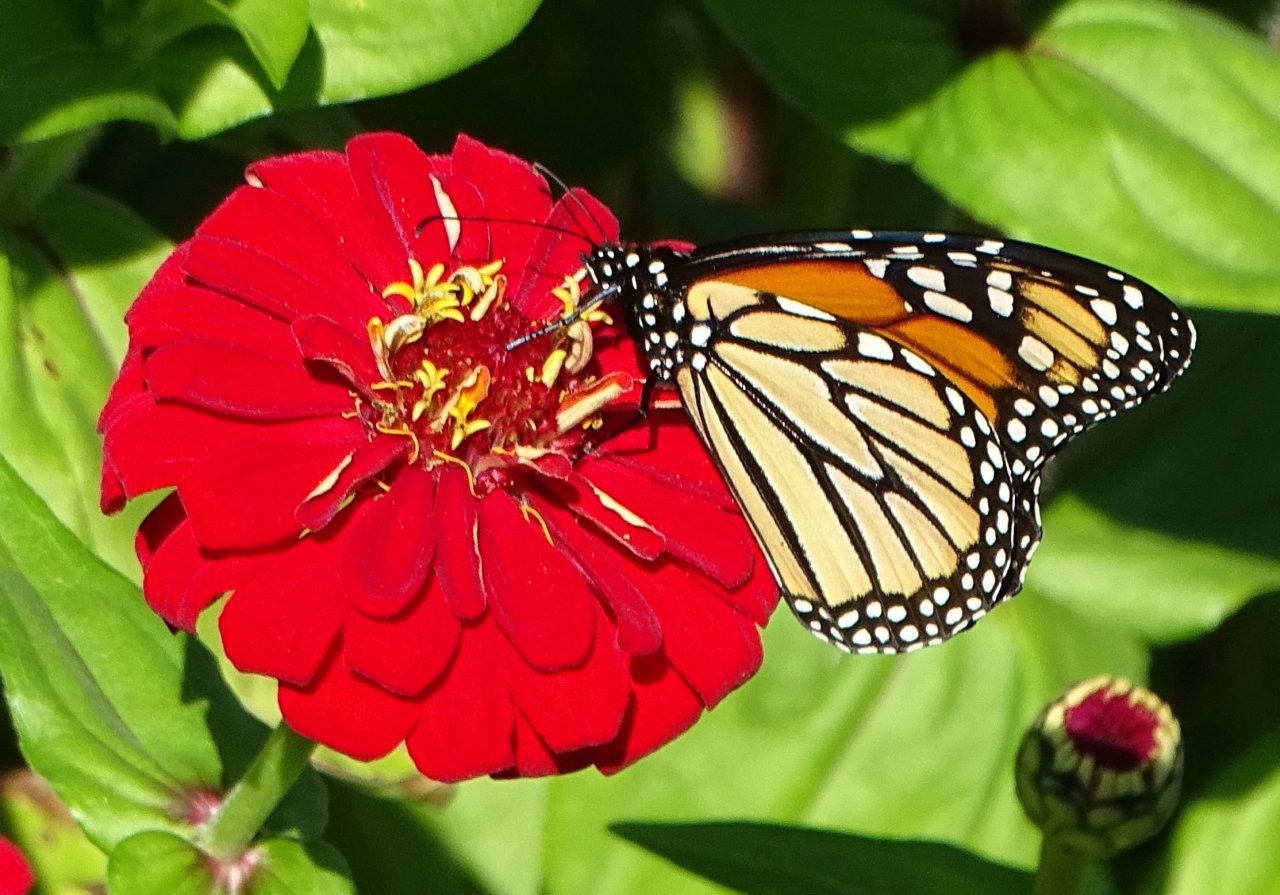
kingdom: Animalia
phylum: Arthropoda
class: Insecta
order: Lepidoptera
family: Nymphalidae
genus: Danaus
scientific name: Danaus plexippus
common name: Monarch
